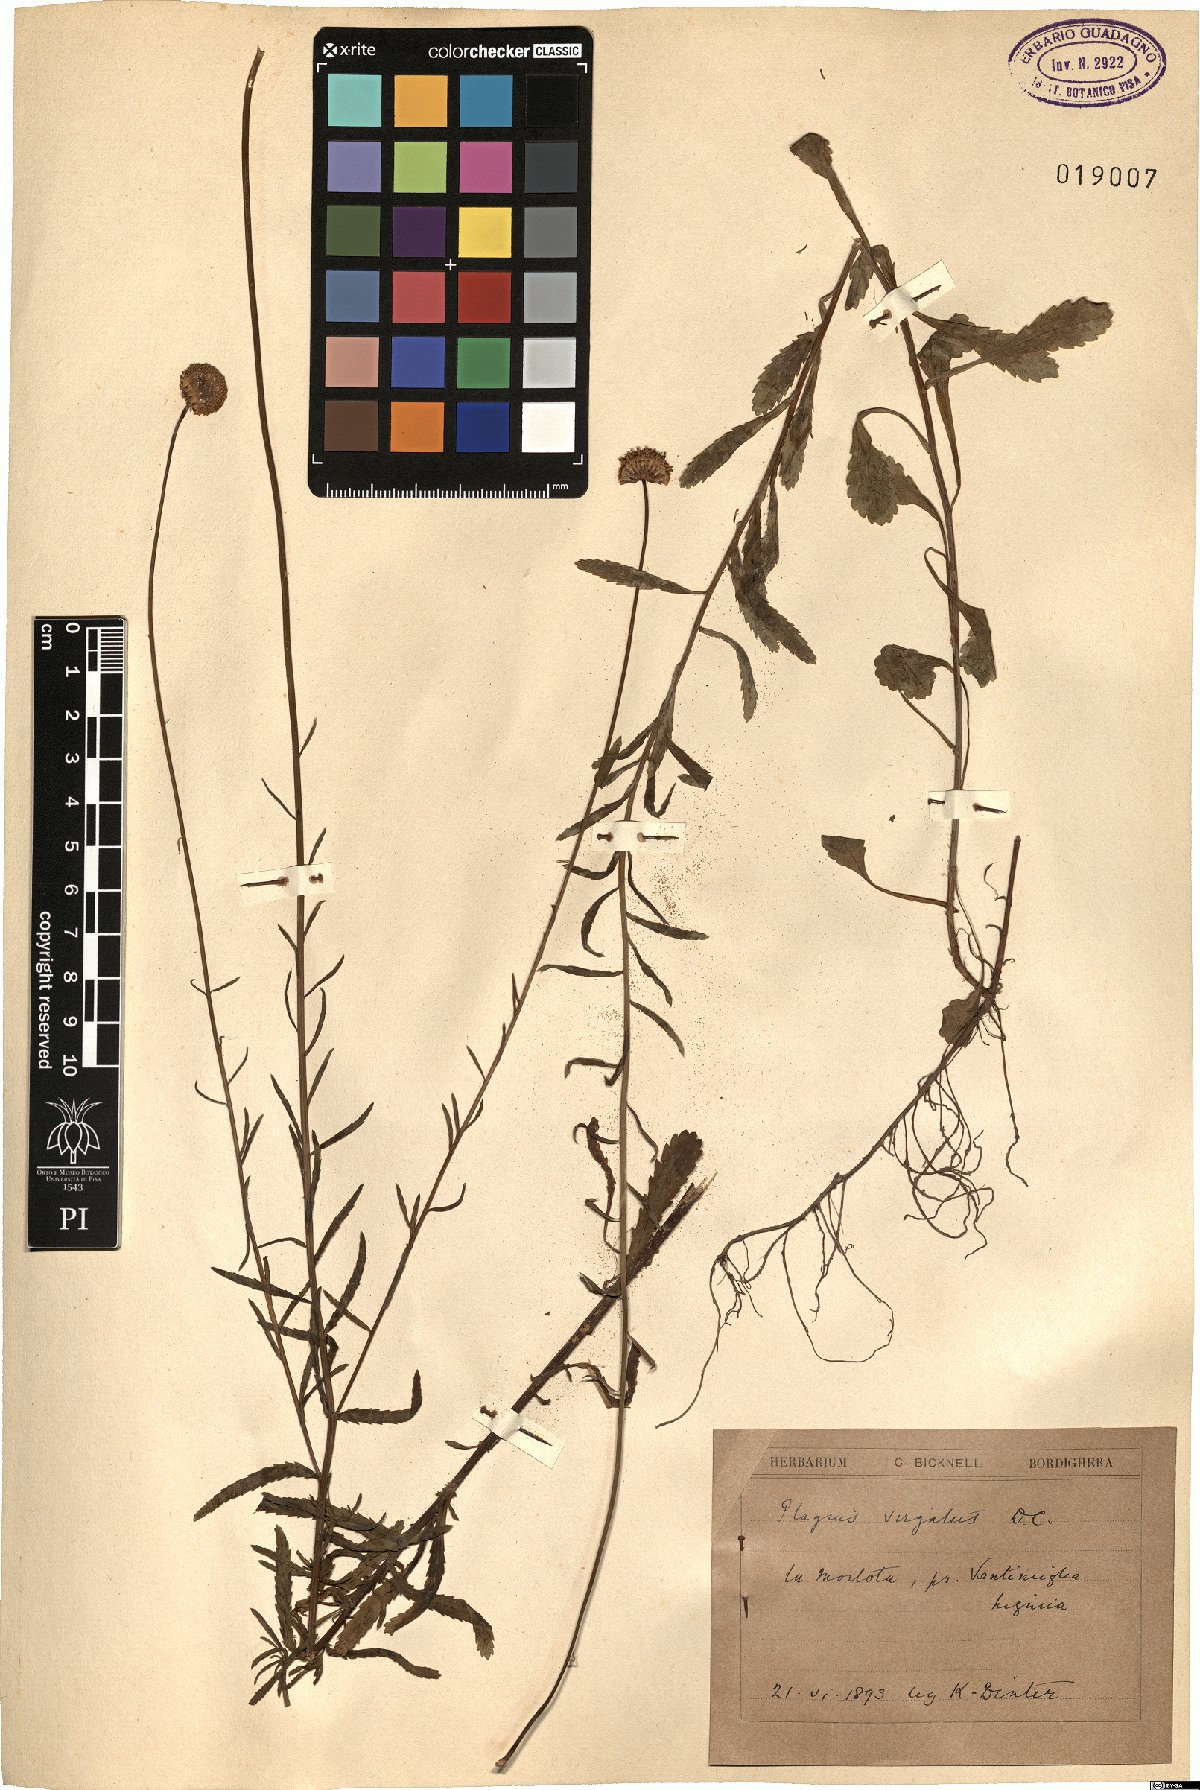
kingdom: Plantae
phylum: Tracheophyta
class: Magnoliopsida
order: Asterales
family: Asteraceae
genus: Leucanthemum
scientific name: Leucanthemum virgatum
